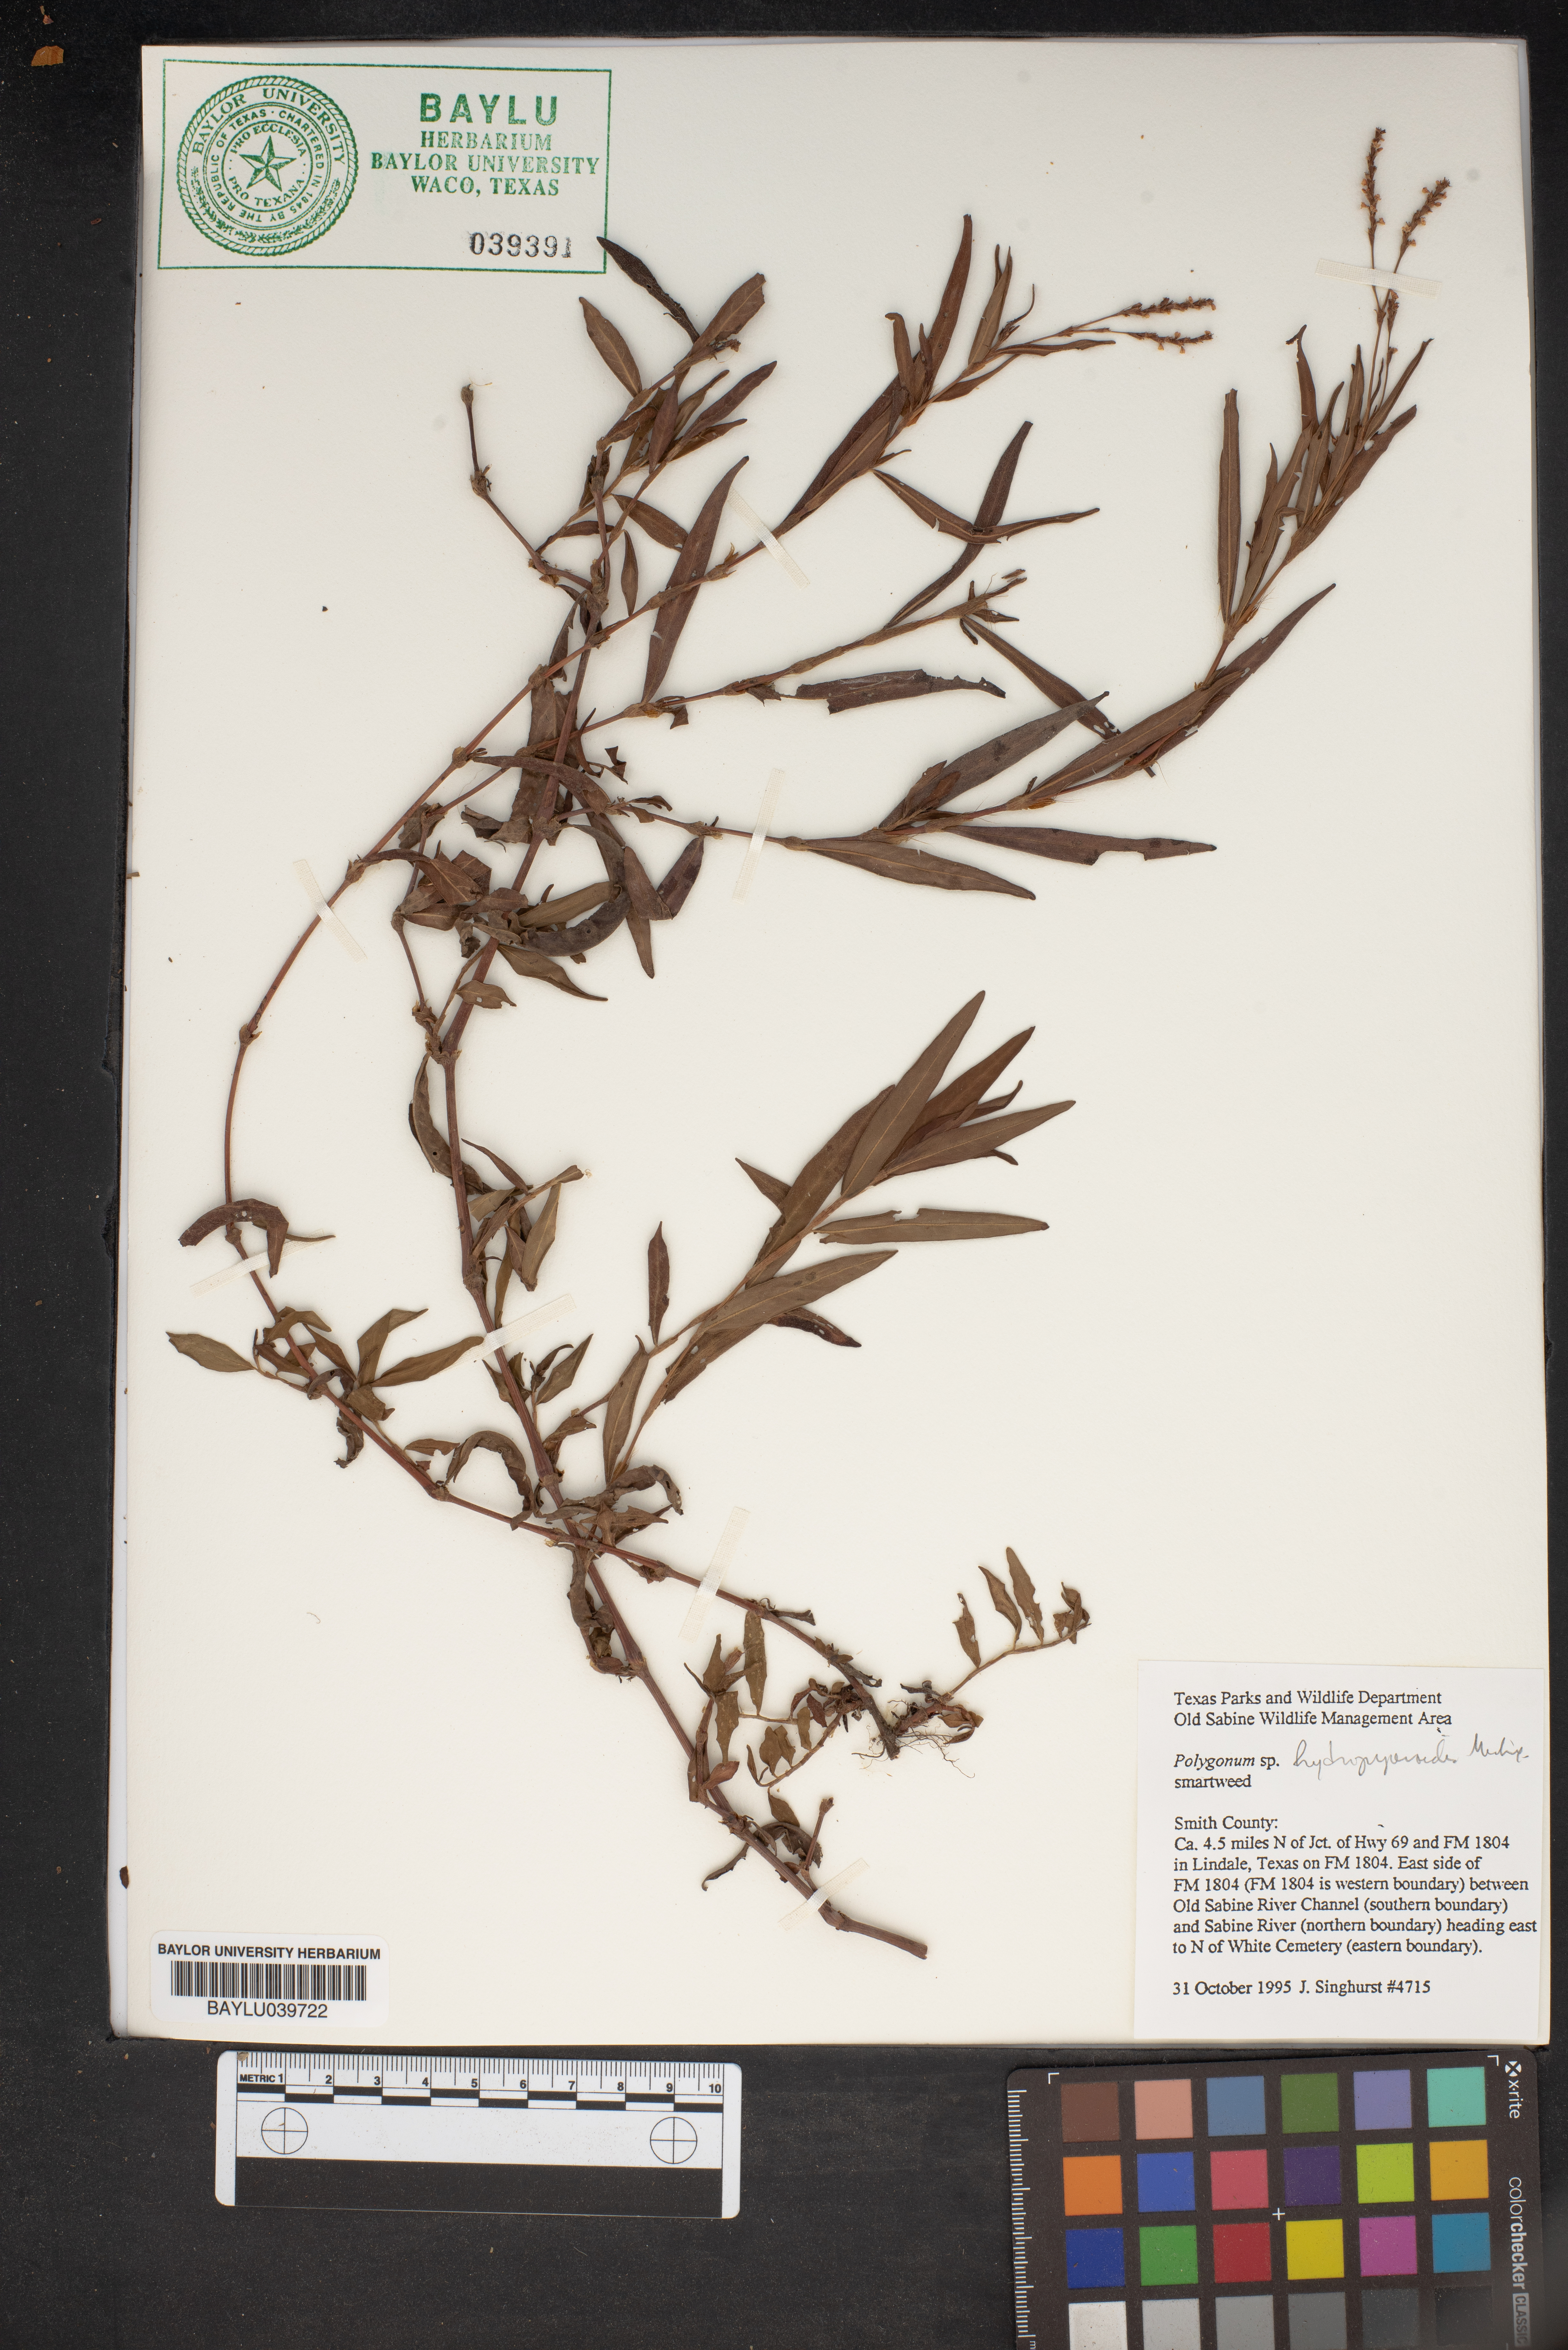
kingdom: Plantae
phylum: Tracheophyta
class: Magnoliopsida
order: Caryophyllales
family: Polygonaceae
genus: Persicaria
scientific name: Persicaria hydropiperoides
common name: Swamp smartweed
